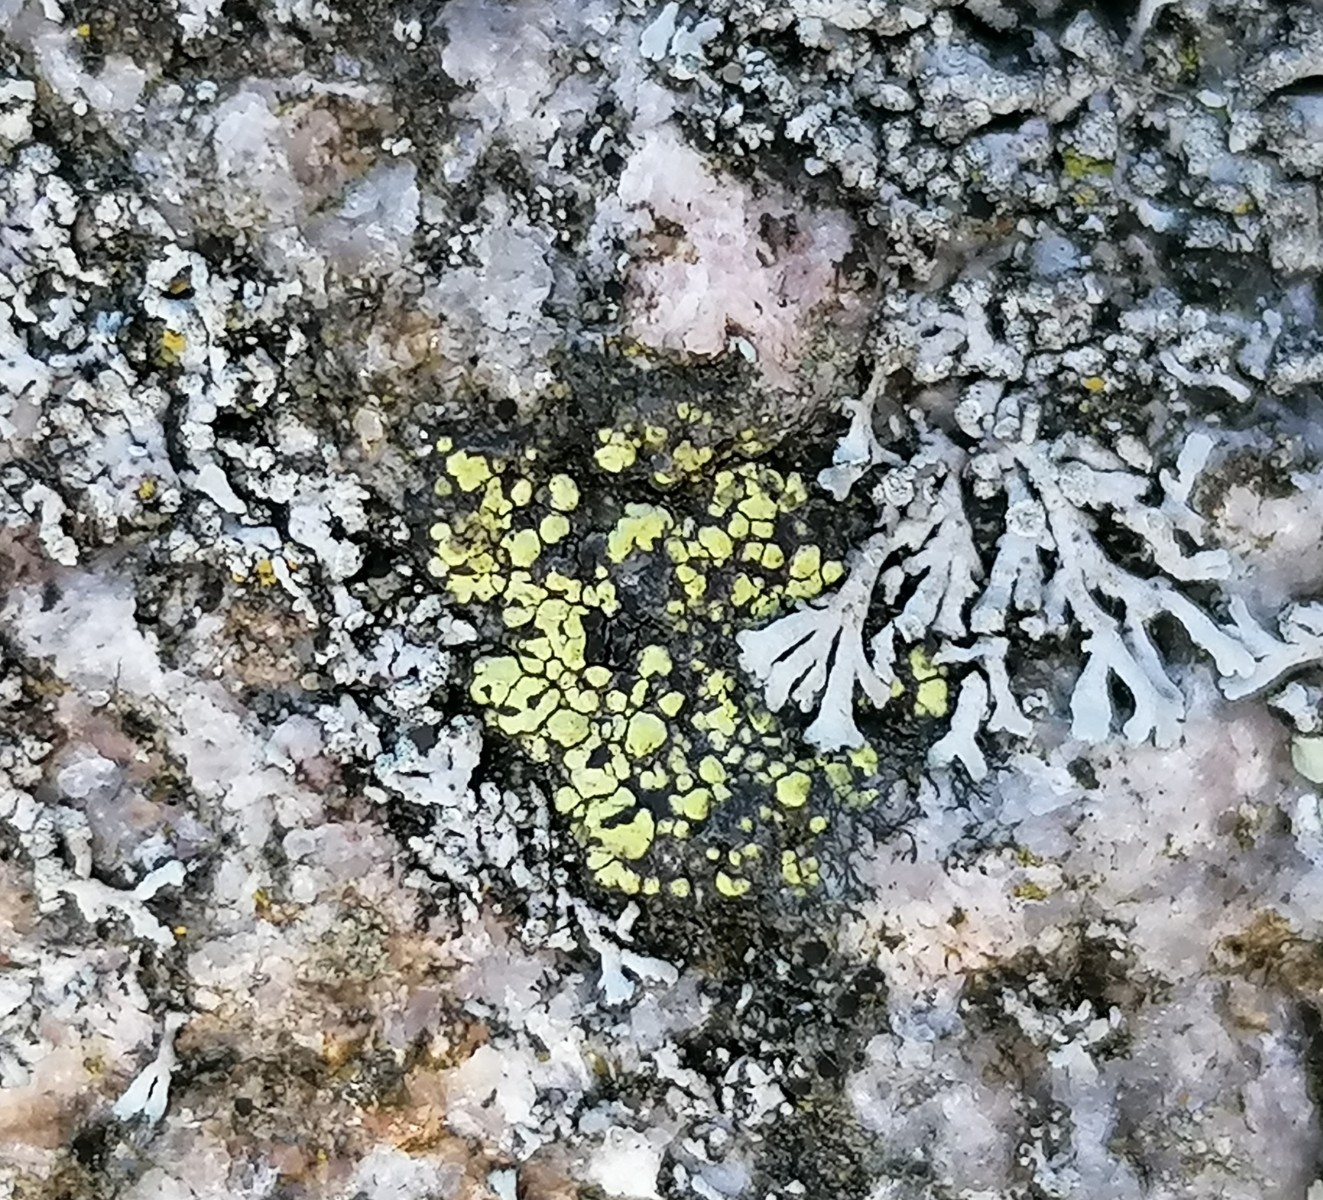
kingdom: Fungi
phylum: Ascomycota
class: Lecanoromycetes
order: Rhizocarpales
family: Rhizocarpaceae
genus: Rhizocarpon
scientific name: Rhizocarpon lecanorinum
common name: krave-landkortlav
